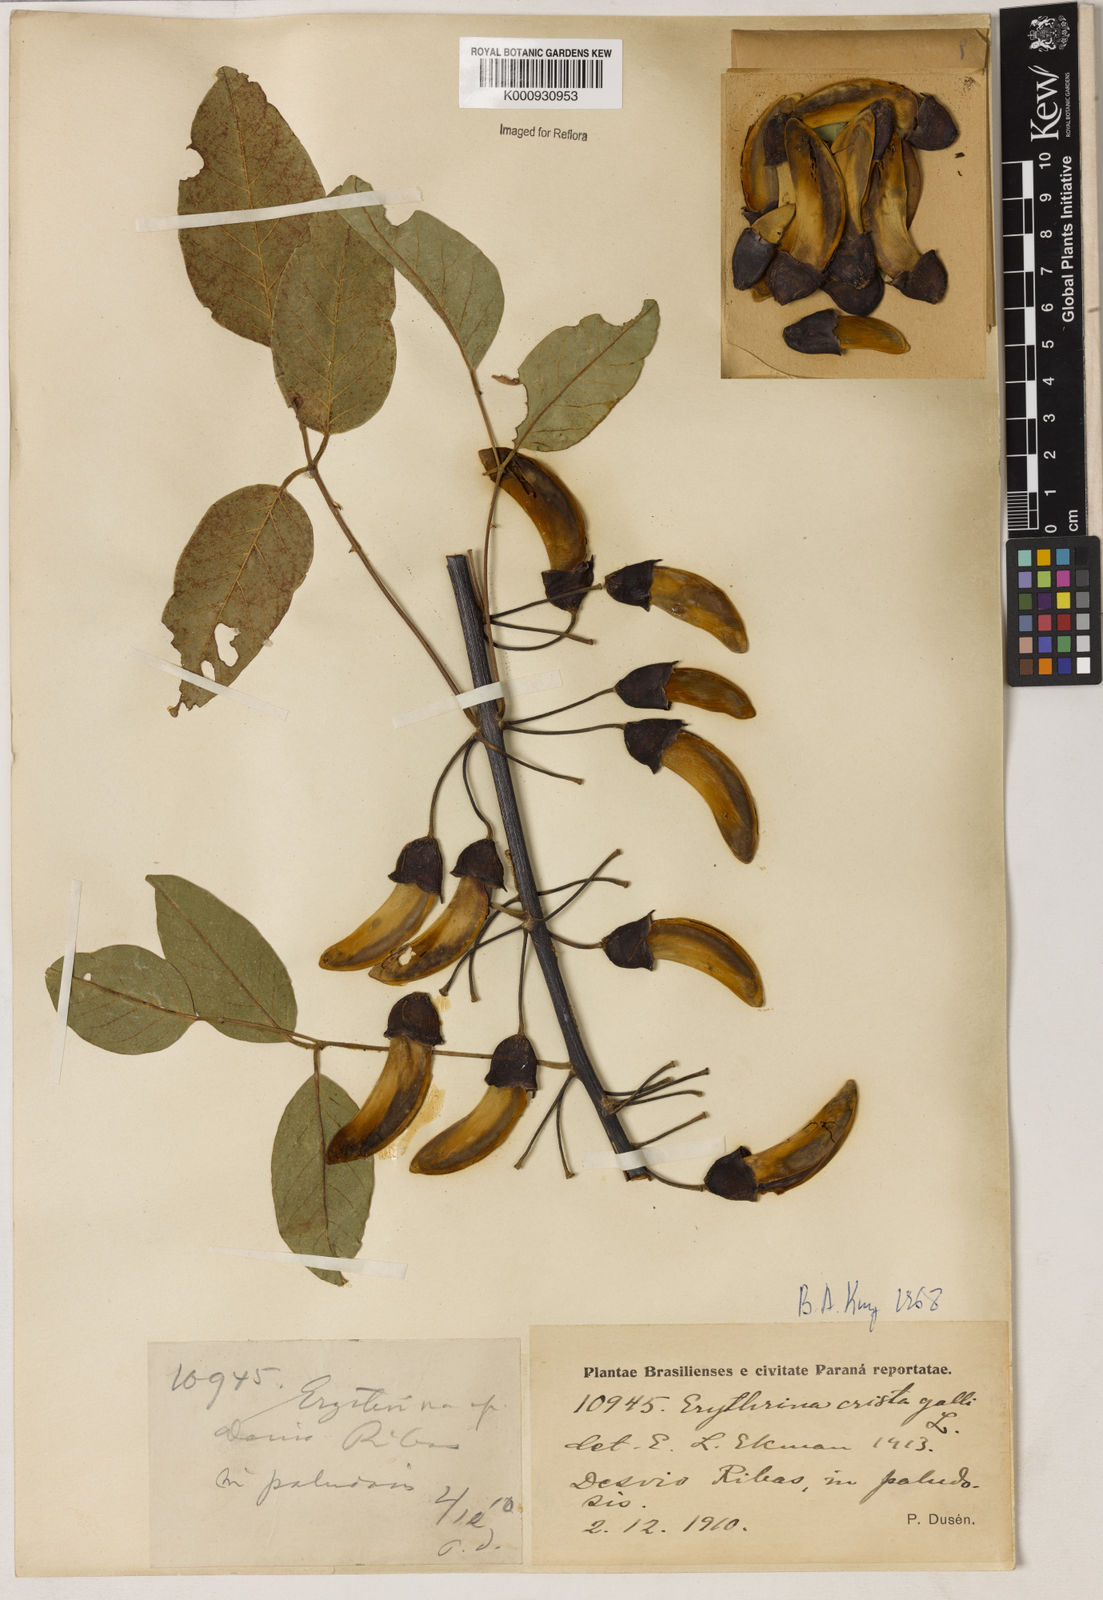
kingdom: Plantae
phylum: Tracheophyta
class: Magnoliopsida
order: Fabales
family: Fabaceae
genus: Erythrina
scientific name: Erythrina crista-galli
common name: Cockspur coral tree
